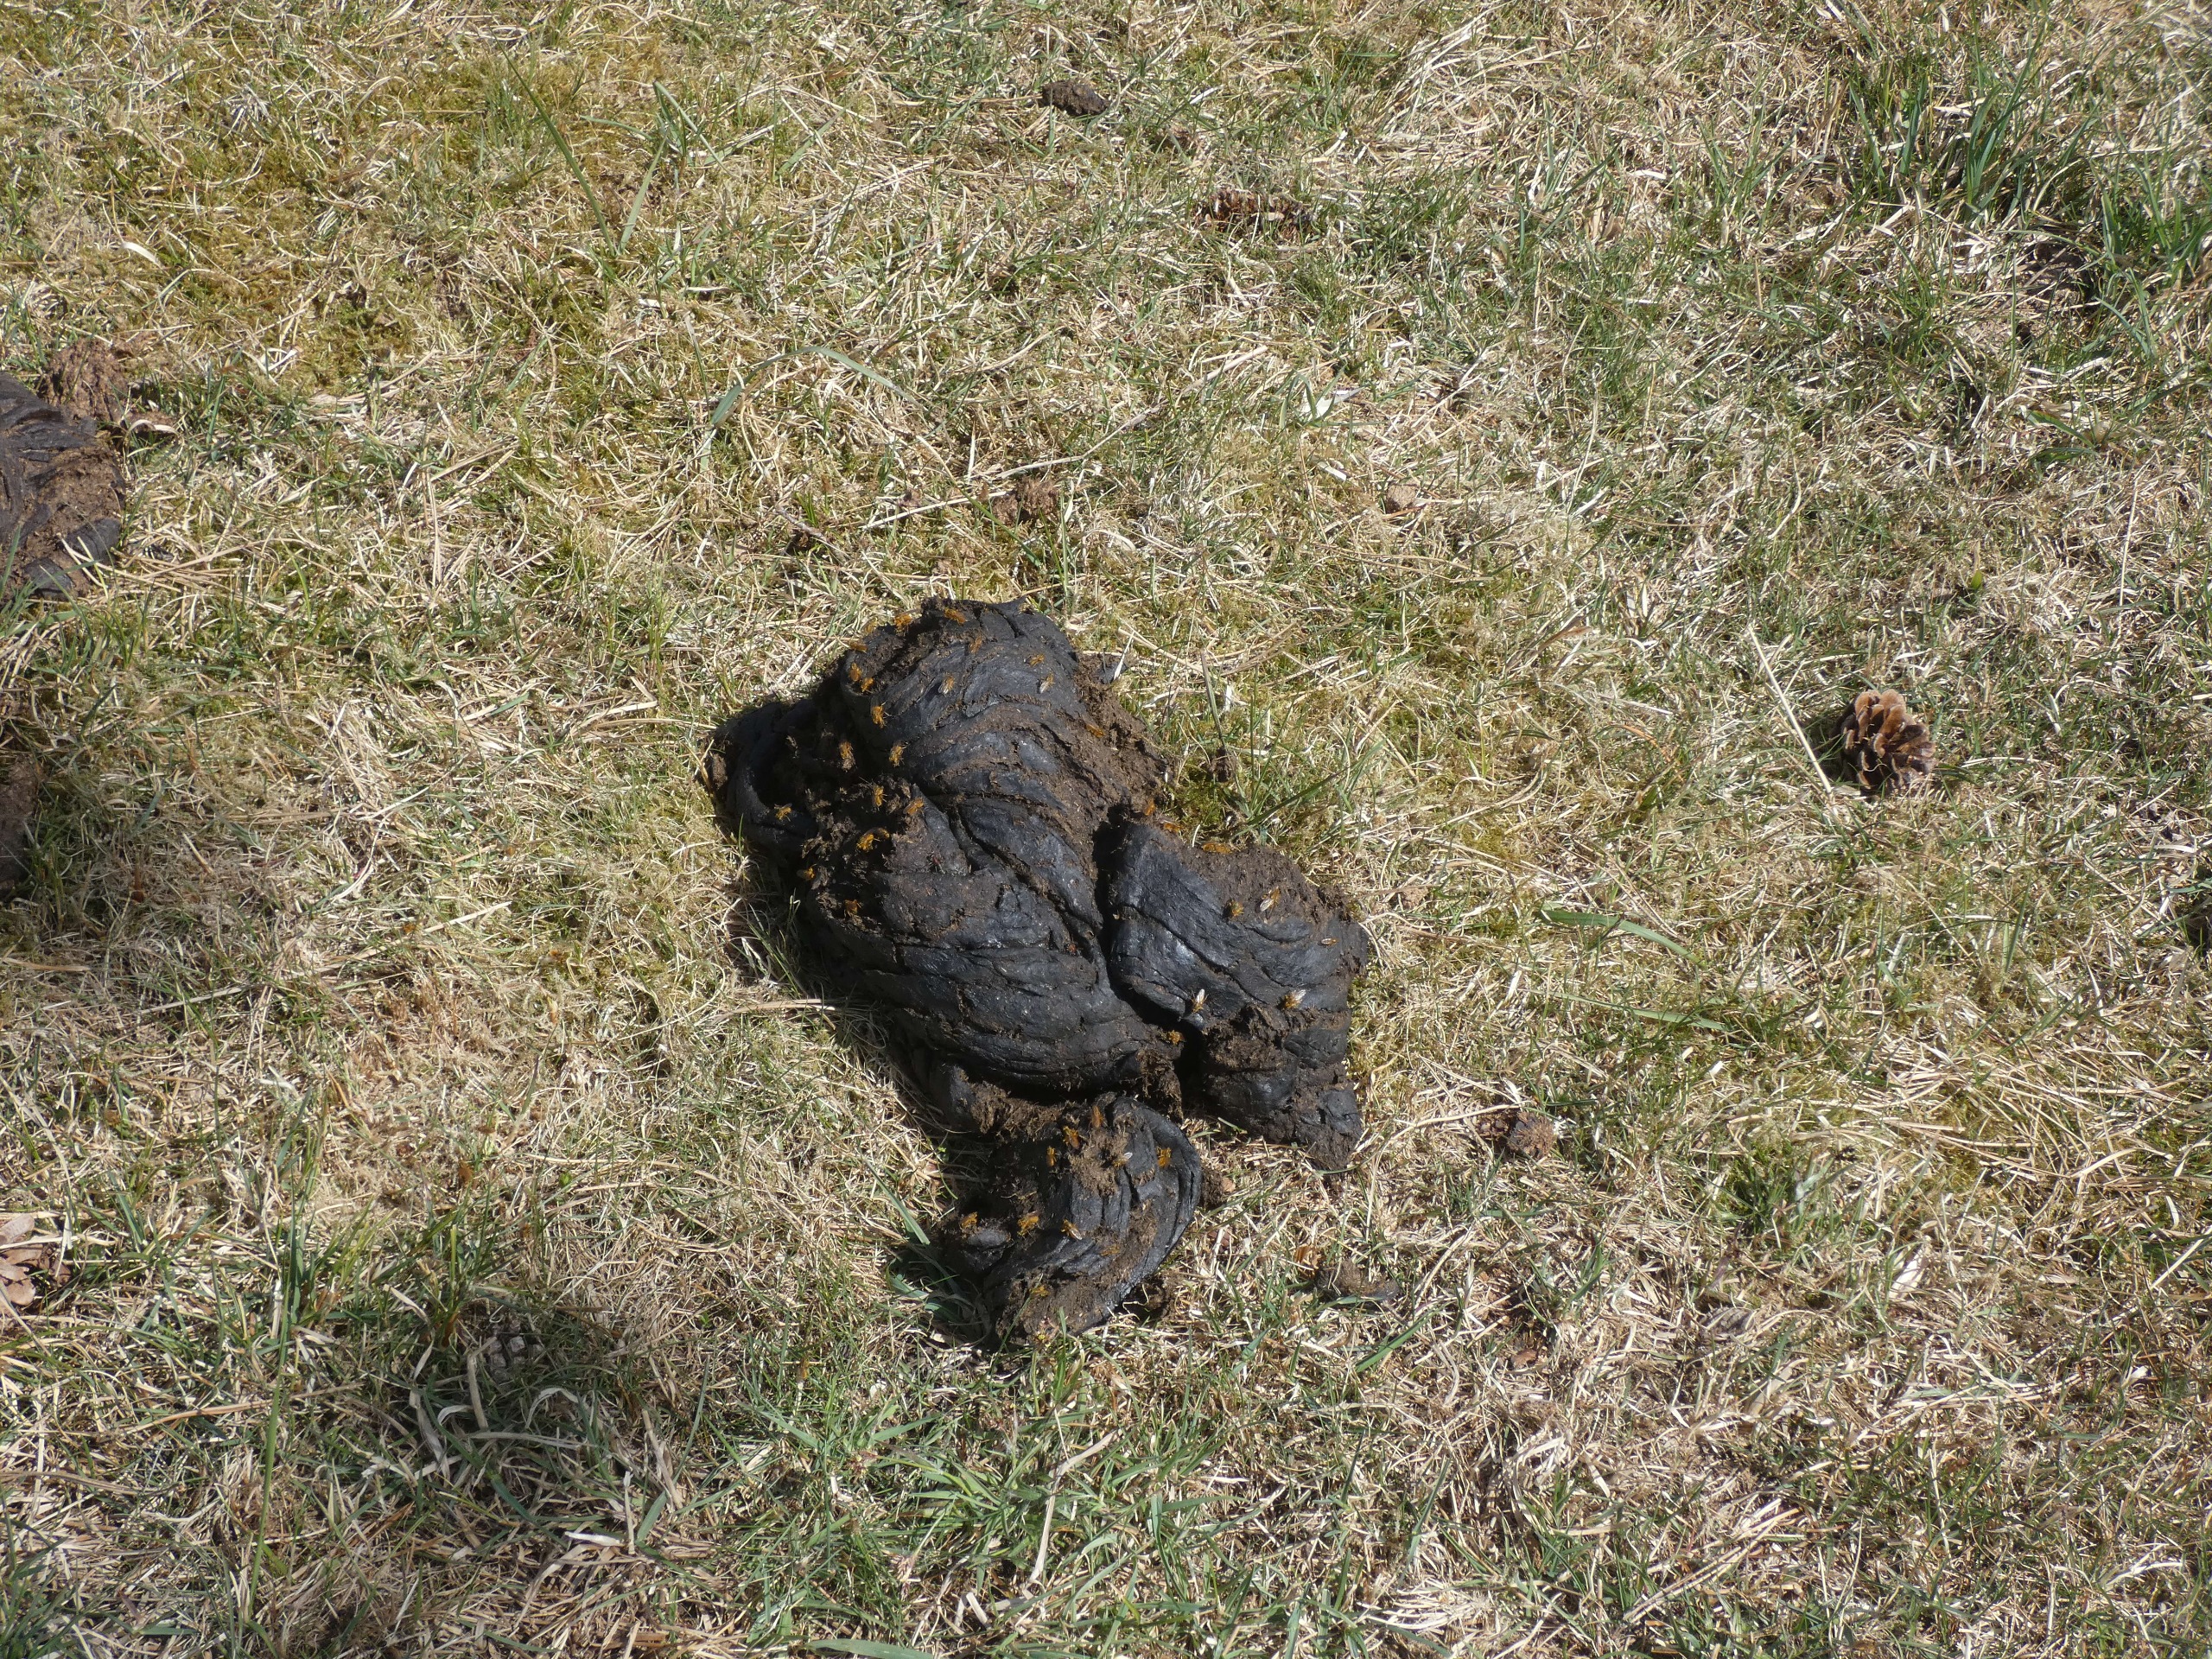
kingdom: Animalia
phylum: Arthropoda
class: Insecta
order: Diptera
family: Scathophagidae
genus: Scathophaga
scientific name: Scathophaga stercoraria
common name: Almindelig gødningsflue
